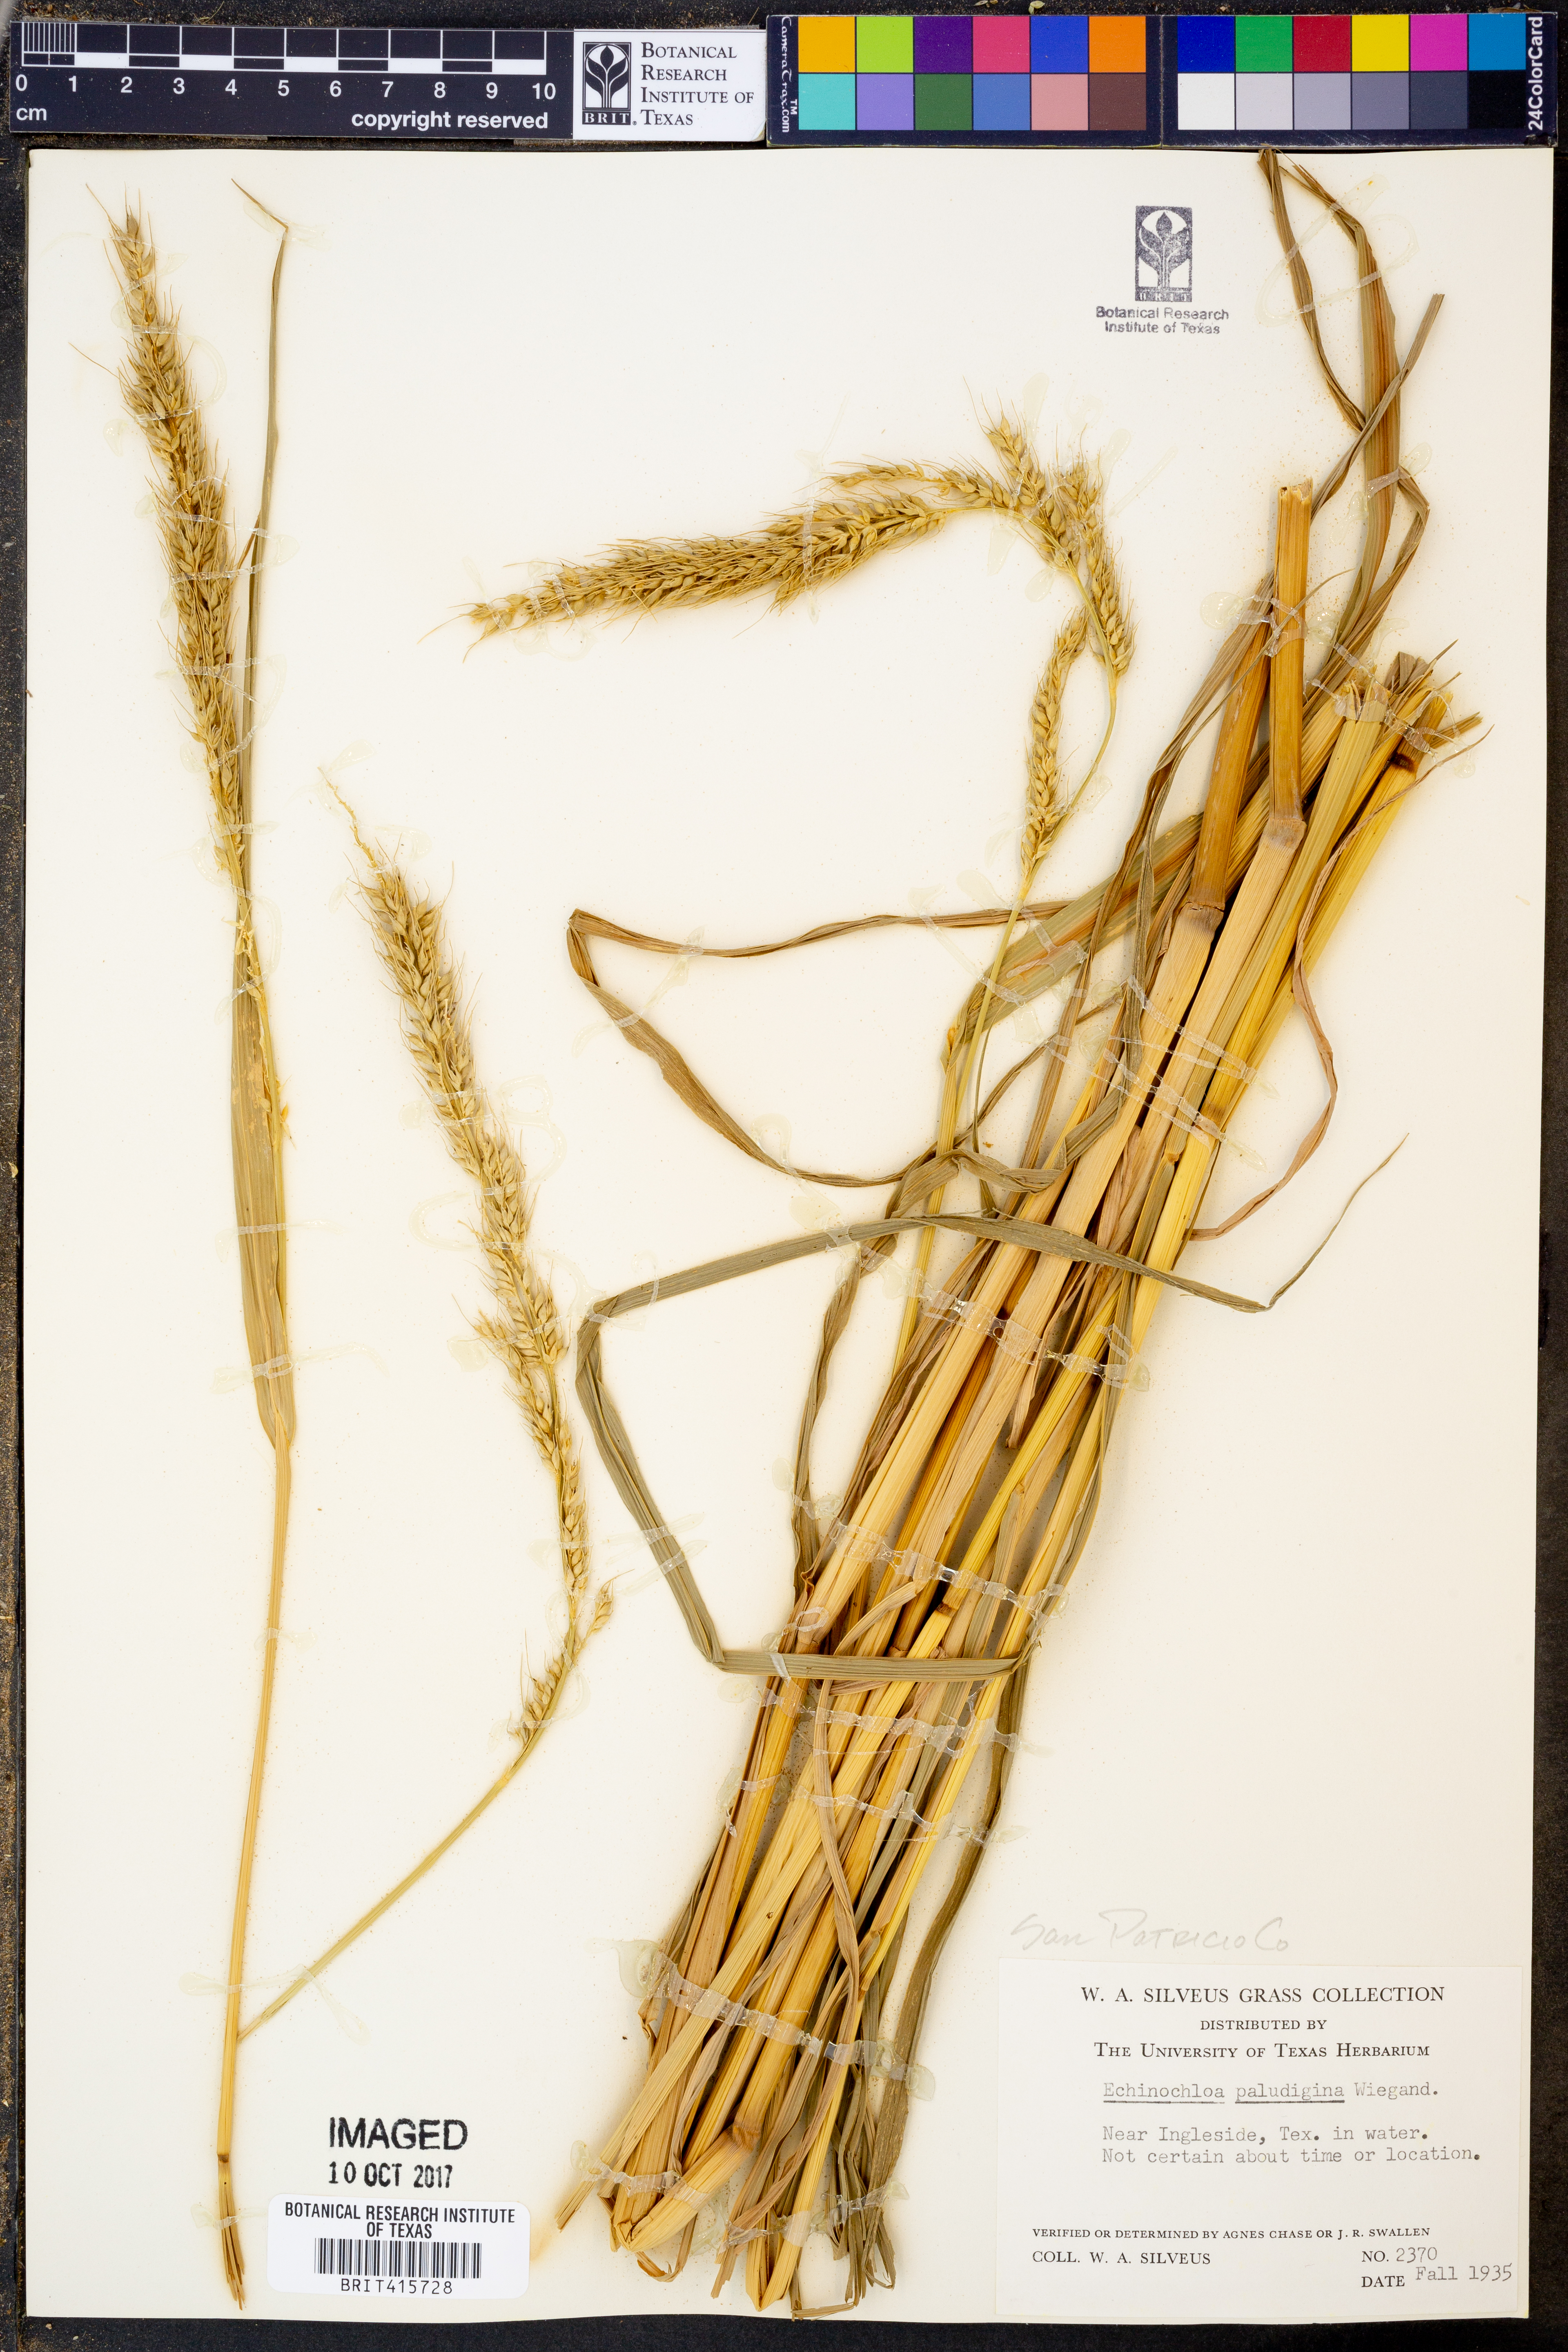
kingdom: Plantae
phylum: Tracheophyta
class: Liliopsida
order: Poales
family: Poaceae
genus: Echinochloa
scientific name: Echinochloa paludigena
